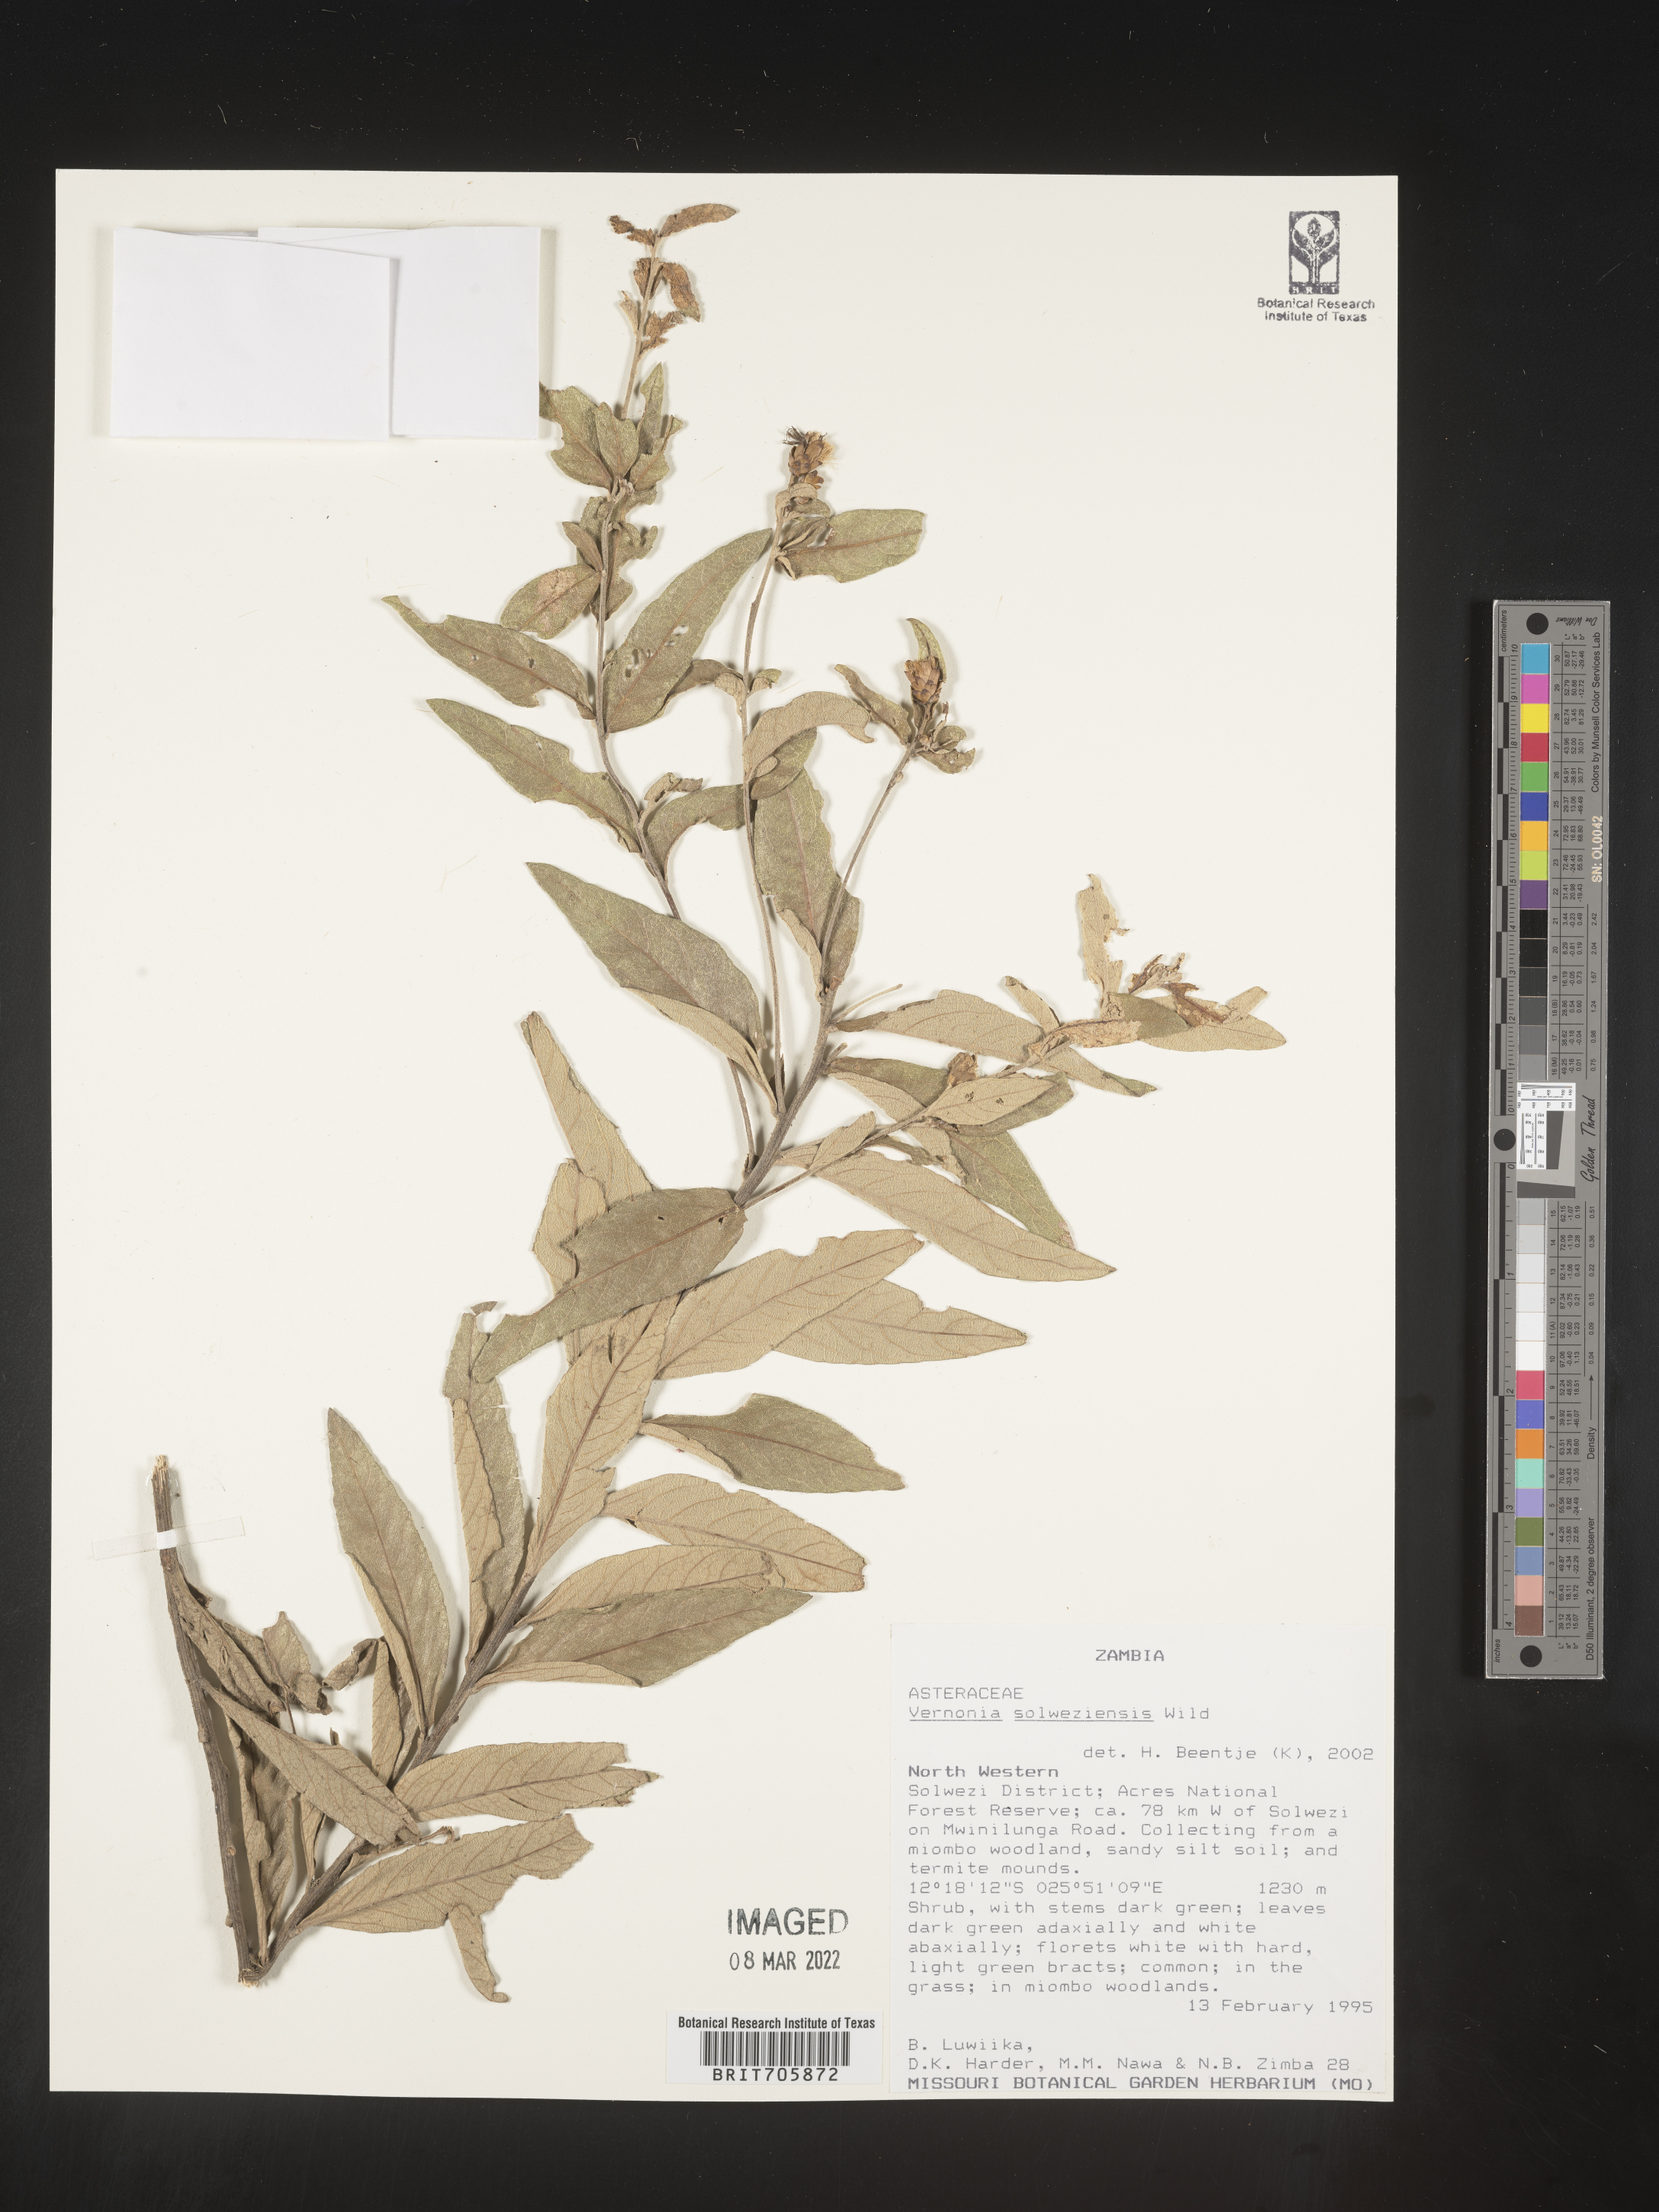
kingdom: Plantae
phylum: Tracheophyta
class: Magnoliopsida
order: Asterales
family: Asteraceae
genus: Vernonia
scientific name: Vernonia
